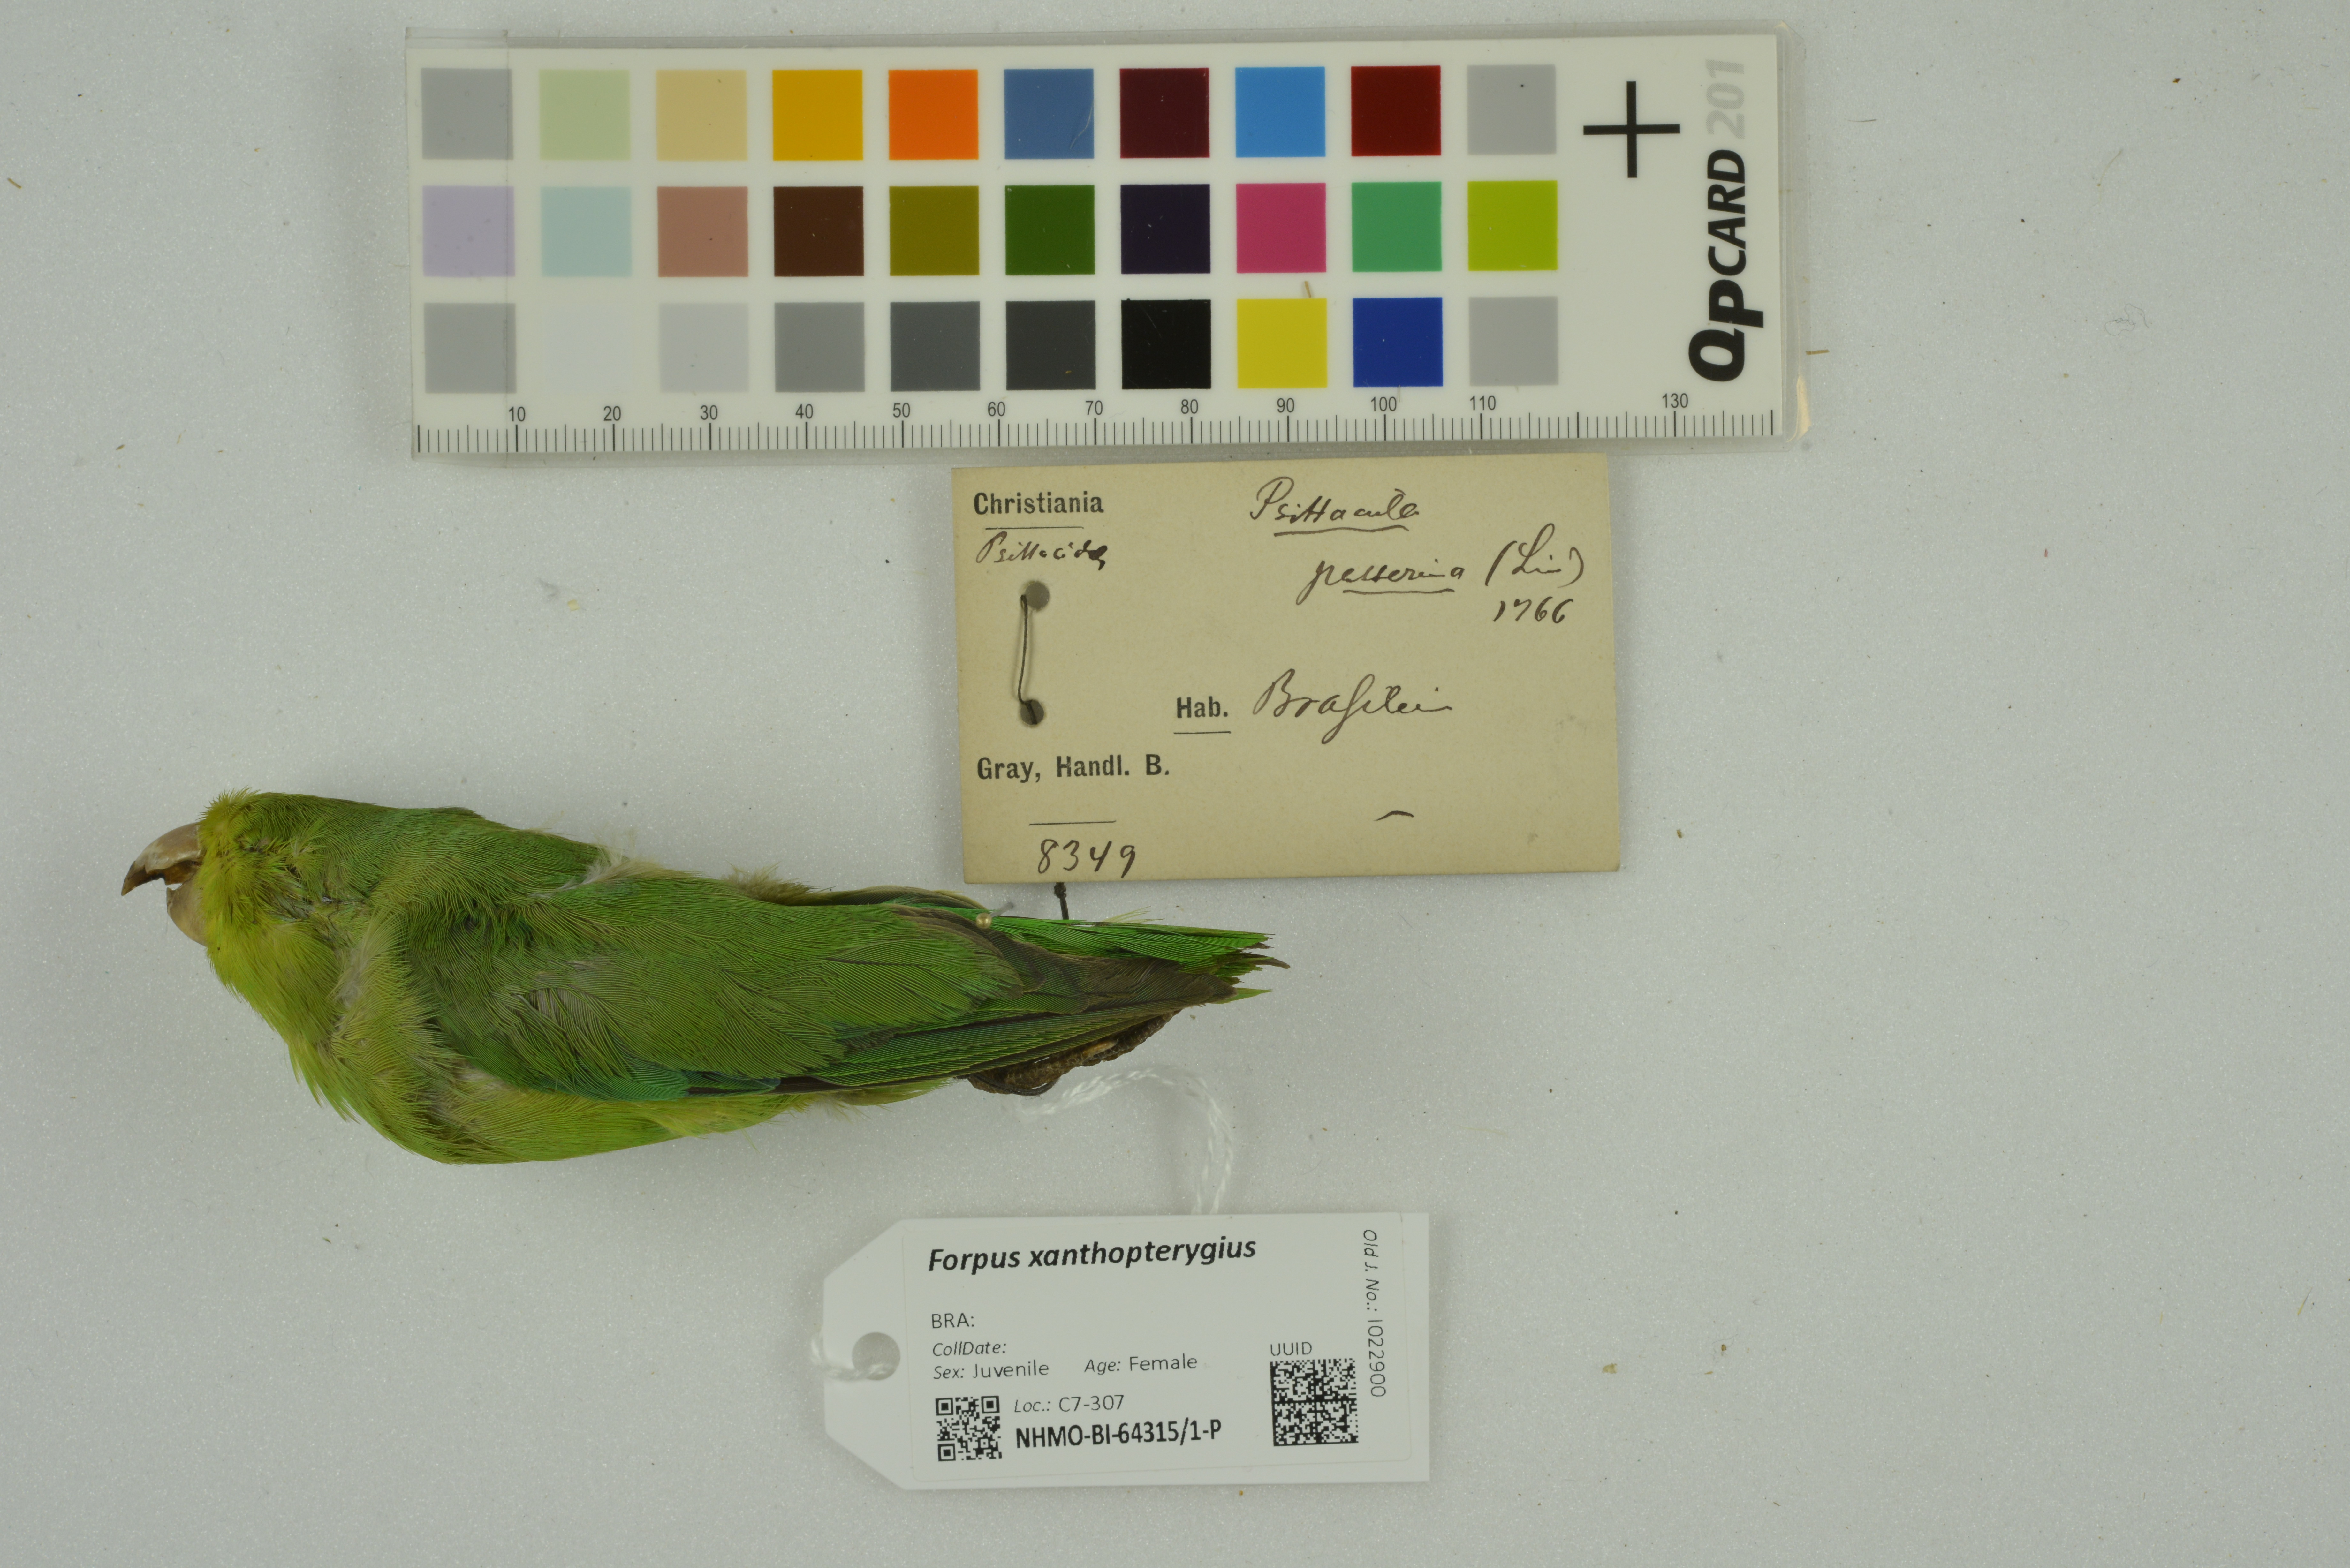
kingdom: Animalia
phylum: Chordata
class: Aves
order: Psittaciformes
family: Psittacidae
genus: Forpus
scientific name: Forpus xanthopterygius
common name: Blue-winged parrotlet
